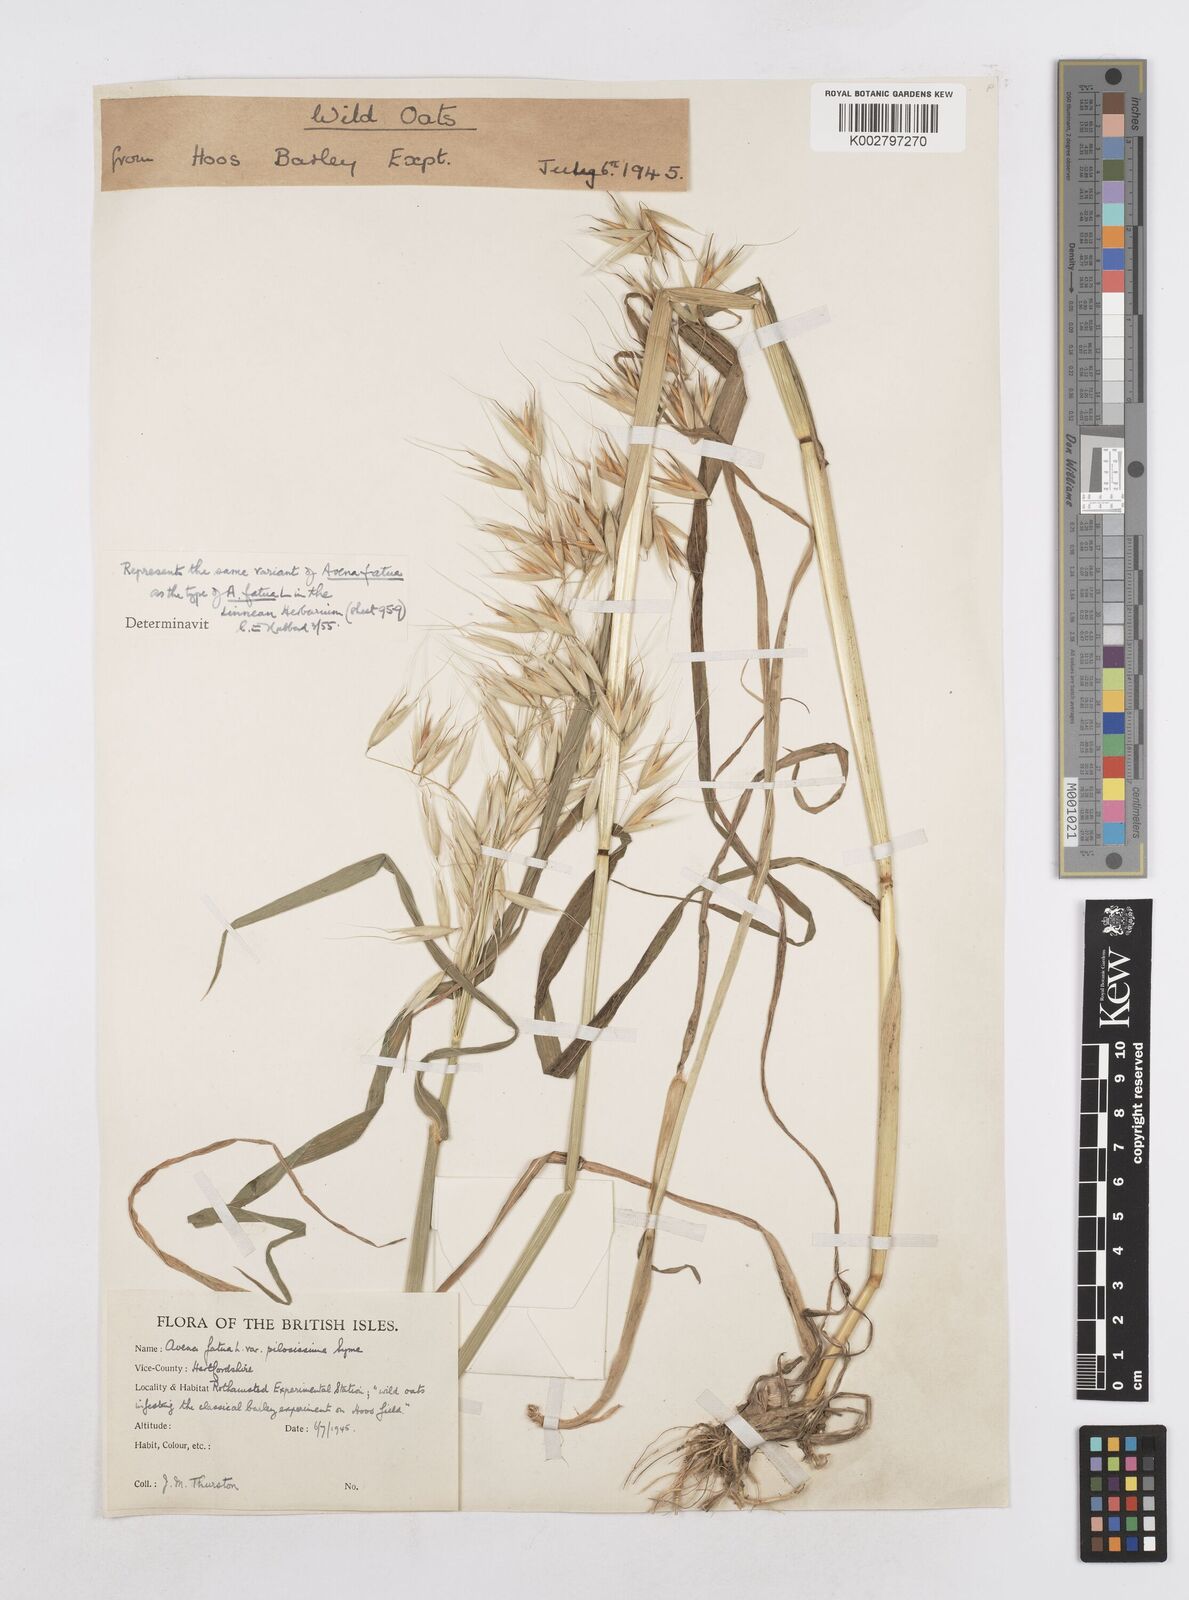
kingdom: Plantae
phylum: Tracheophyta
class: Liliopsida
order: Poales
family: Poaceae
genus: Avena
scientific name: Avena fatua
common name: Wild oat
